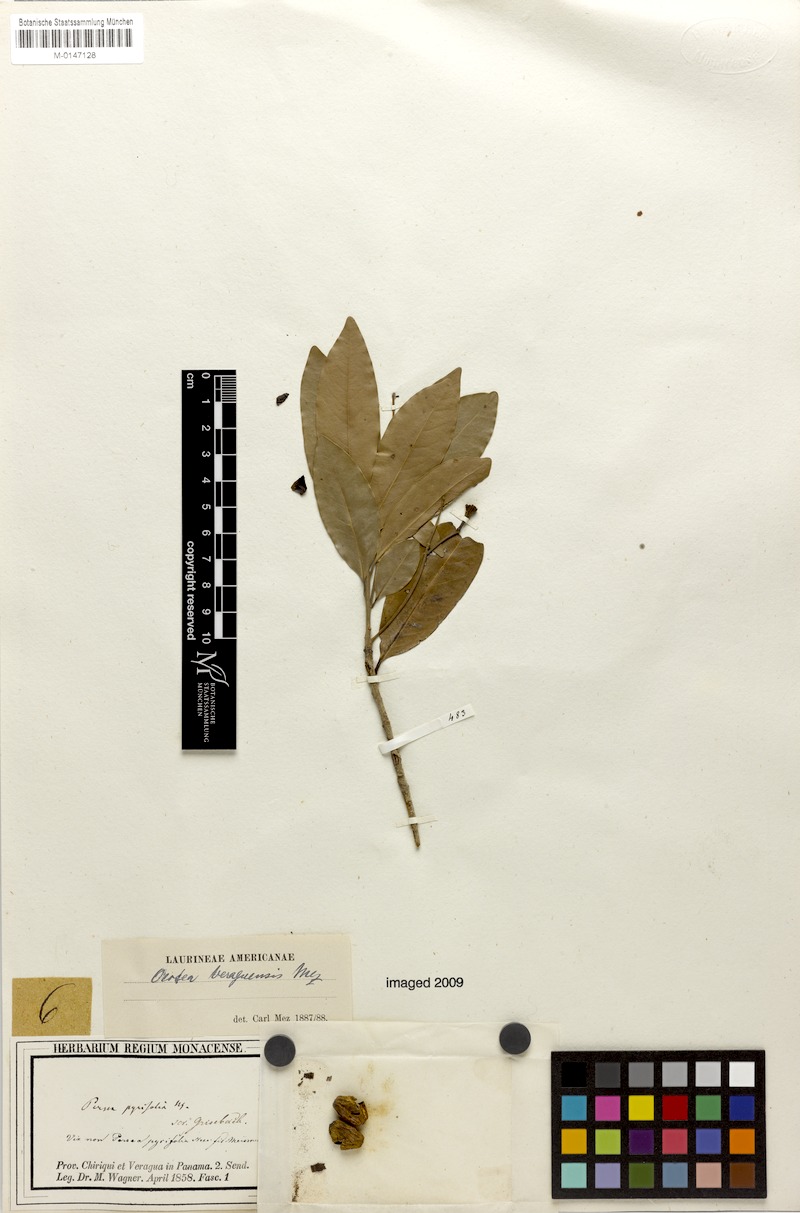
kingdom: Plantae
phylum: Tracheophyta
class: Magnoliopsida
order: Laurales
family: Lauraceae
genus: Mespilodaphne
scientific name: Mespilodaphne veraguensis
